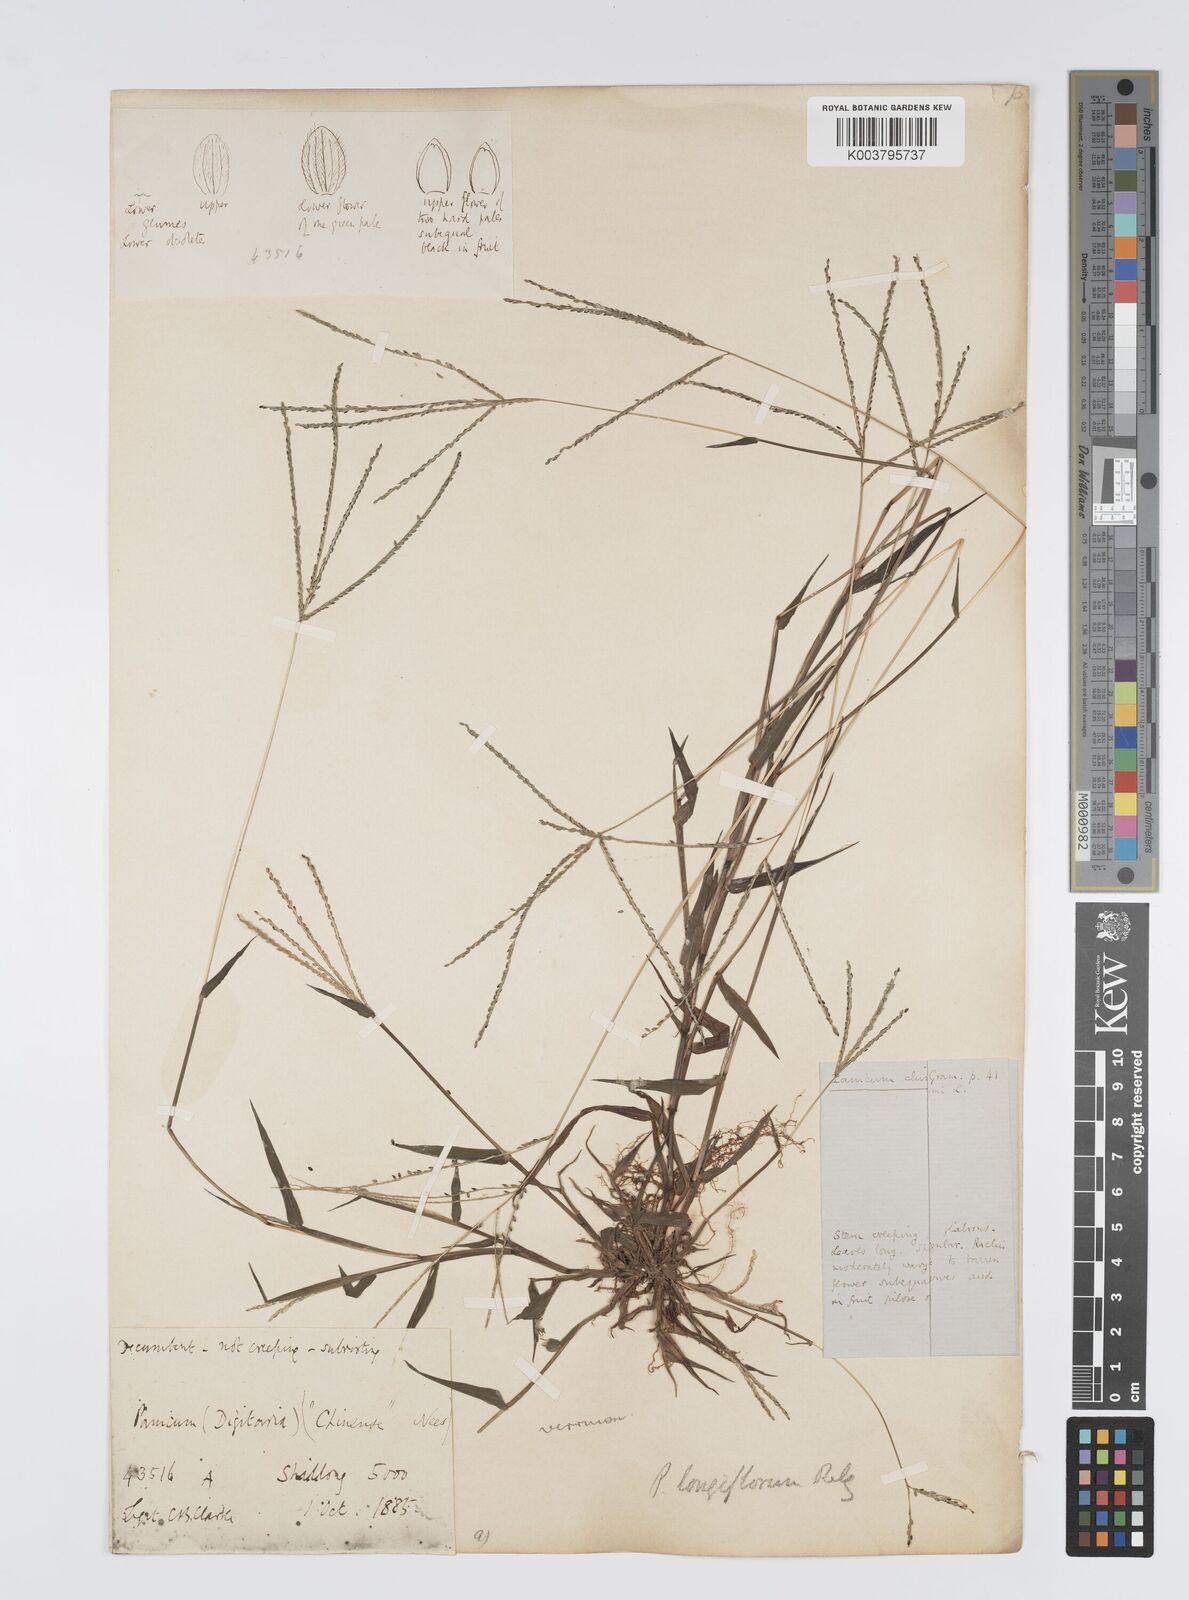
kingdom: Plantae
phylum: Tracheophyta
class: Liliopsida
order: Poales
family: Poaceae
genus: Digitaria
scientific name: Digitaria violascens
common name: Violet crabgrass
